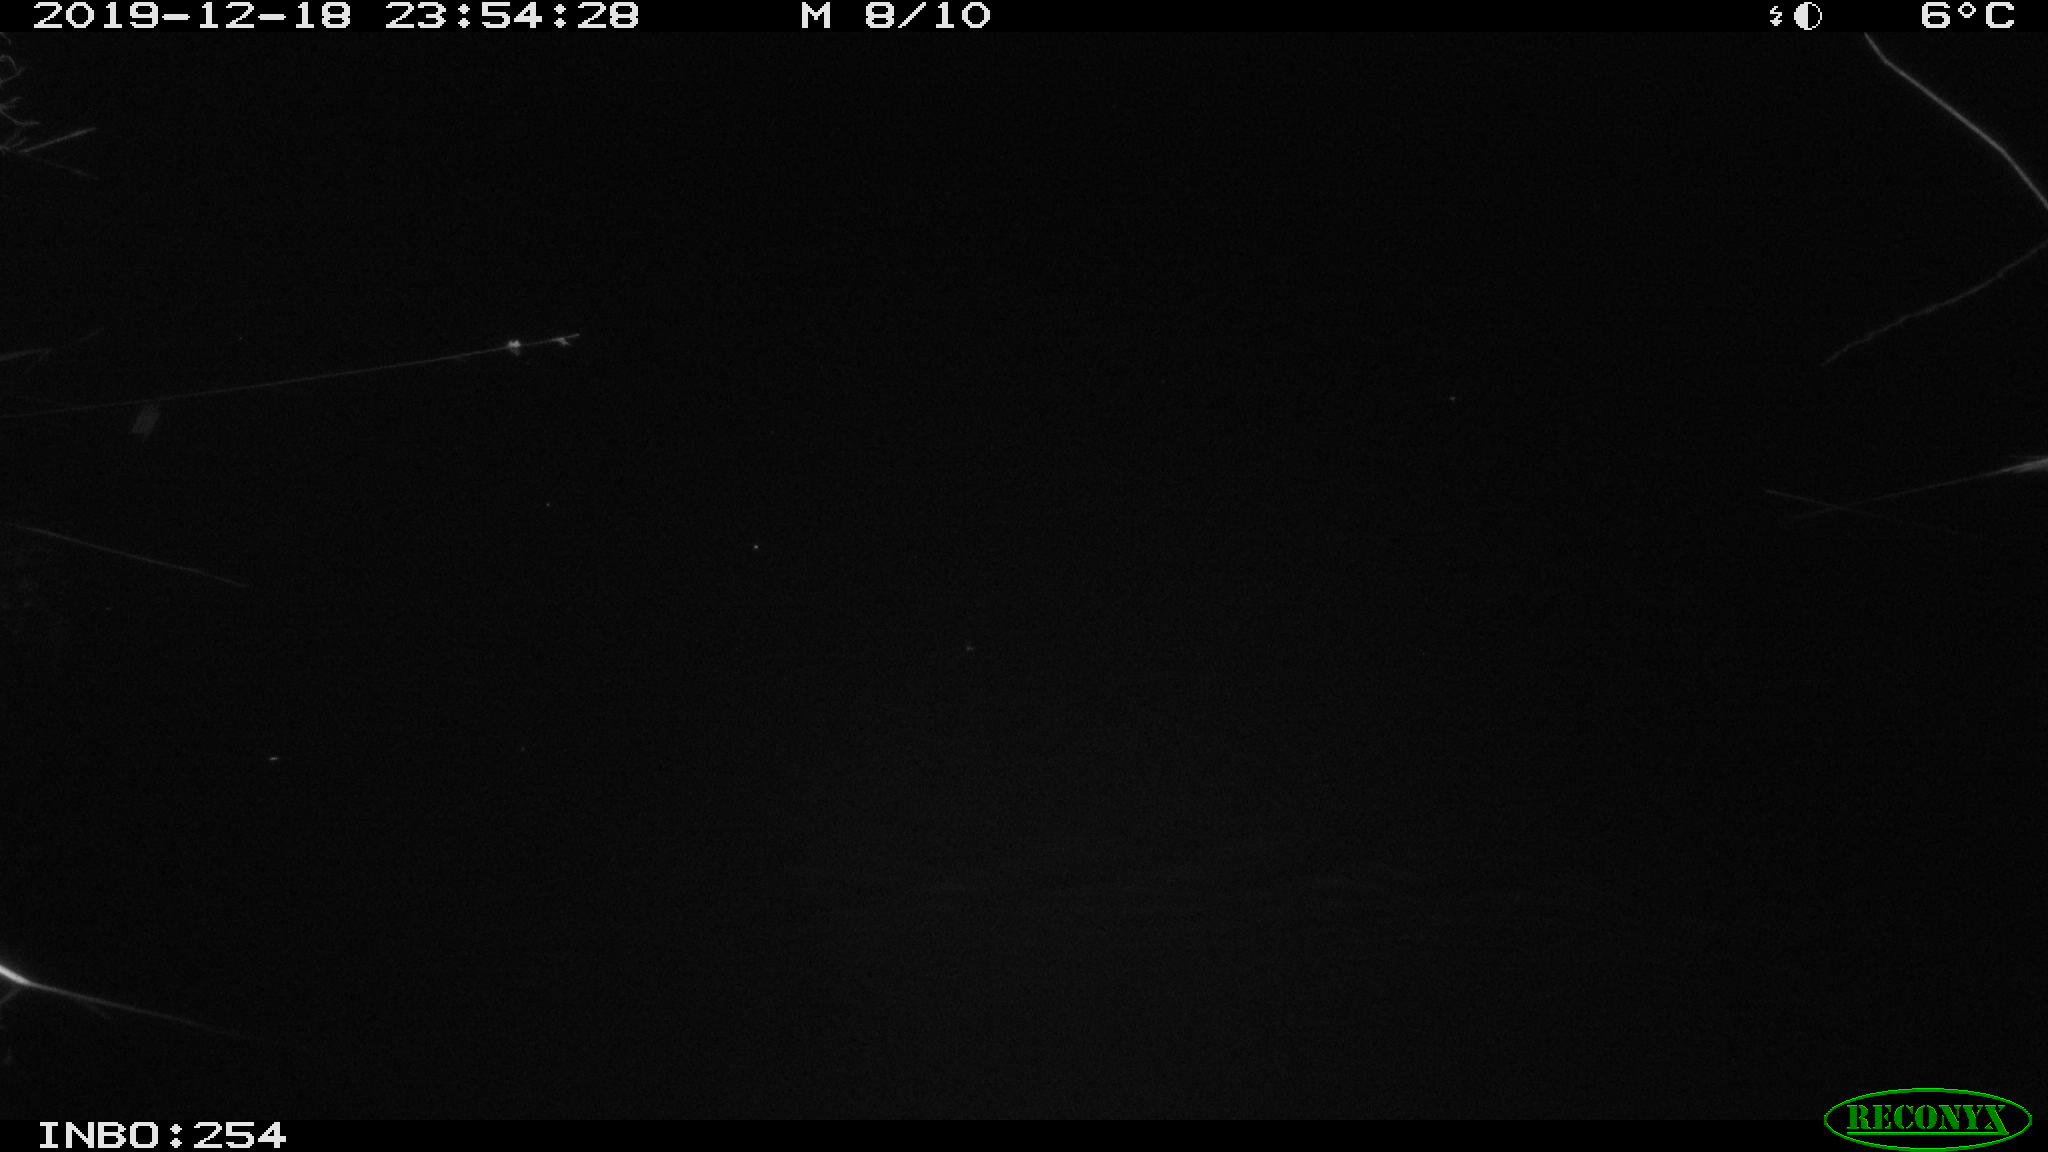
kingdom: Animalia
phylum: Chordata
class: Mammalia
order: Rodentia
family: Cricetidae
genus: Ondatra
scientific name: Ondatra zibethicus
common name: Muskrat
